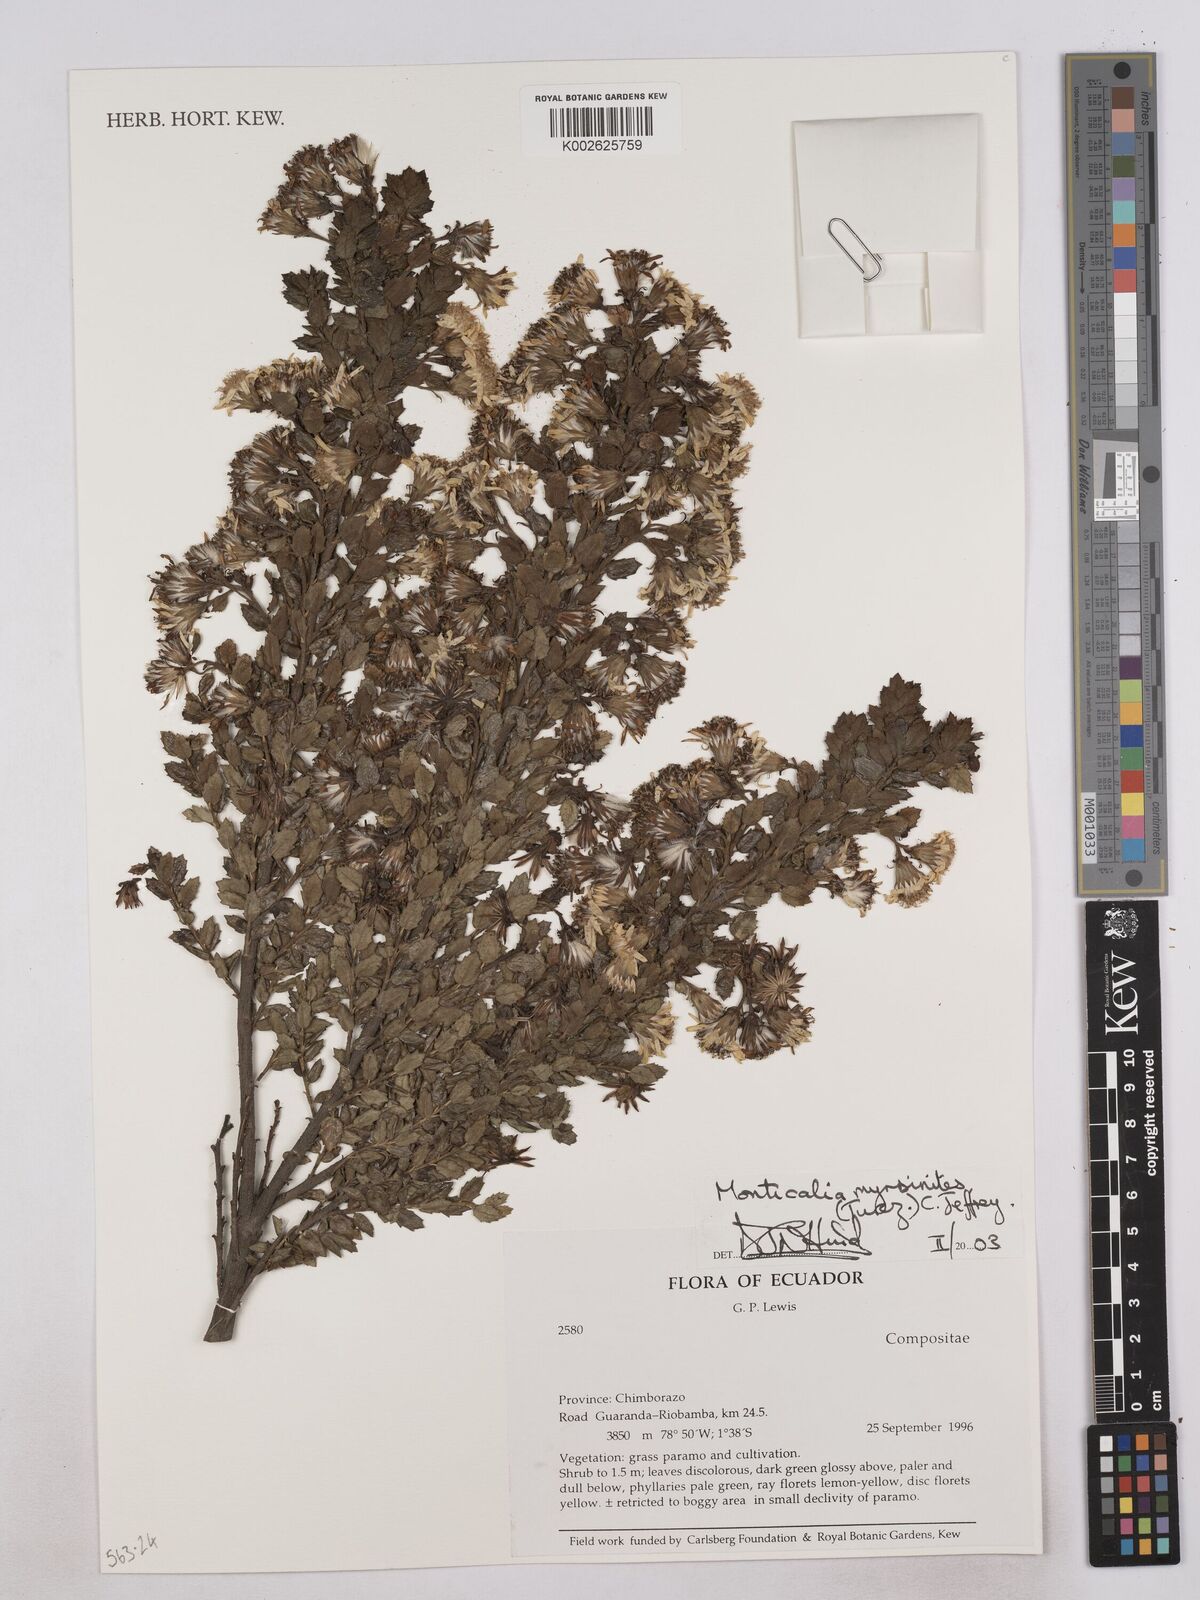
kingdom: Plantae
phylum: Tracheophyta
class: Magnoliopsida
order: Asterales
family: Asteraceae
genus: Monticalia
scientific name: Monticalia myrsinites
